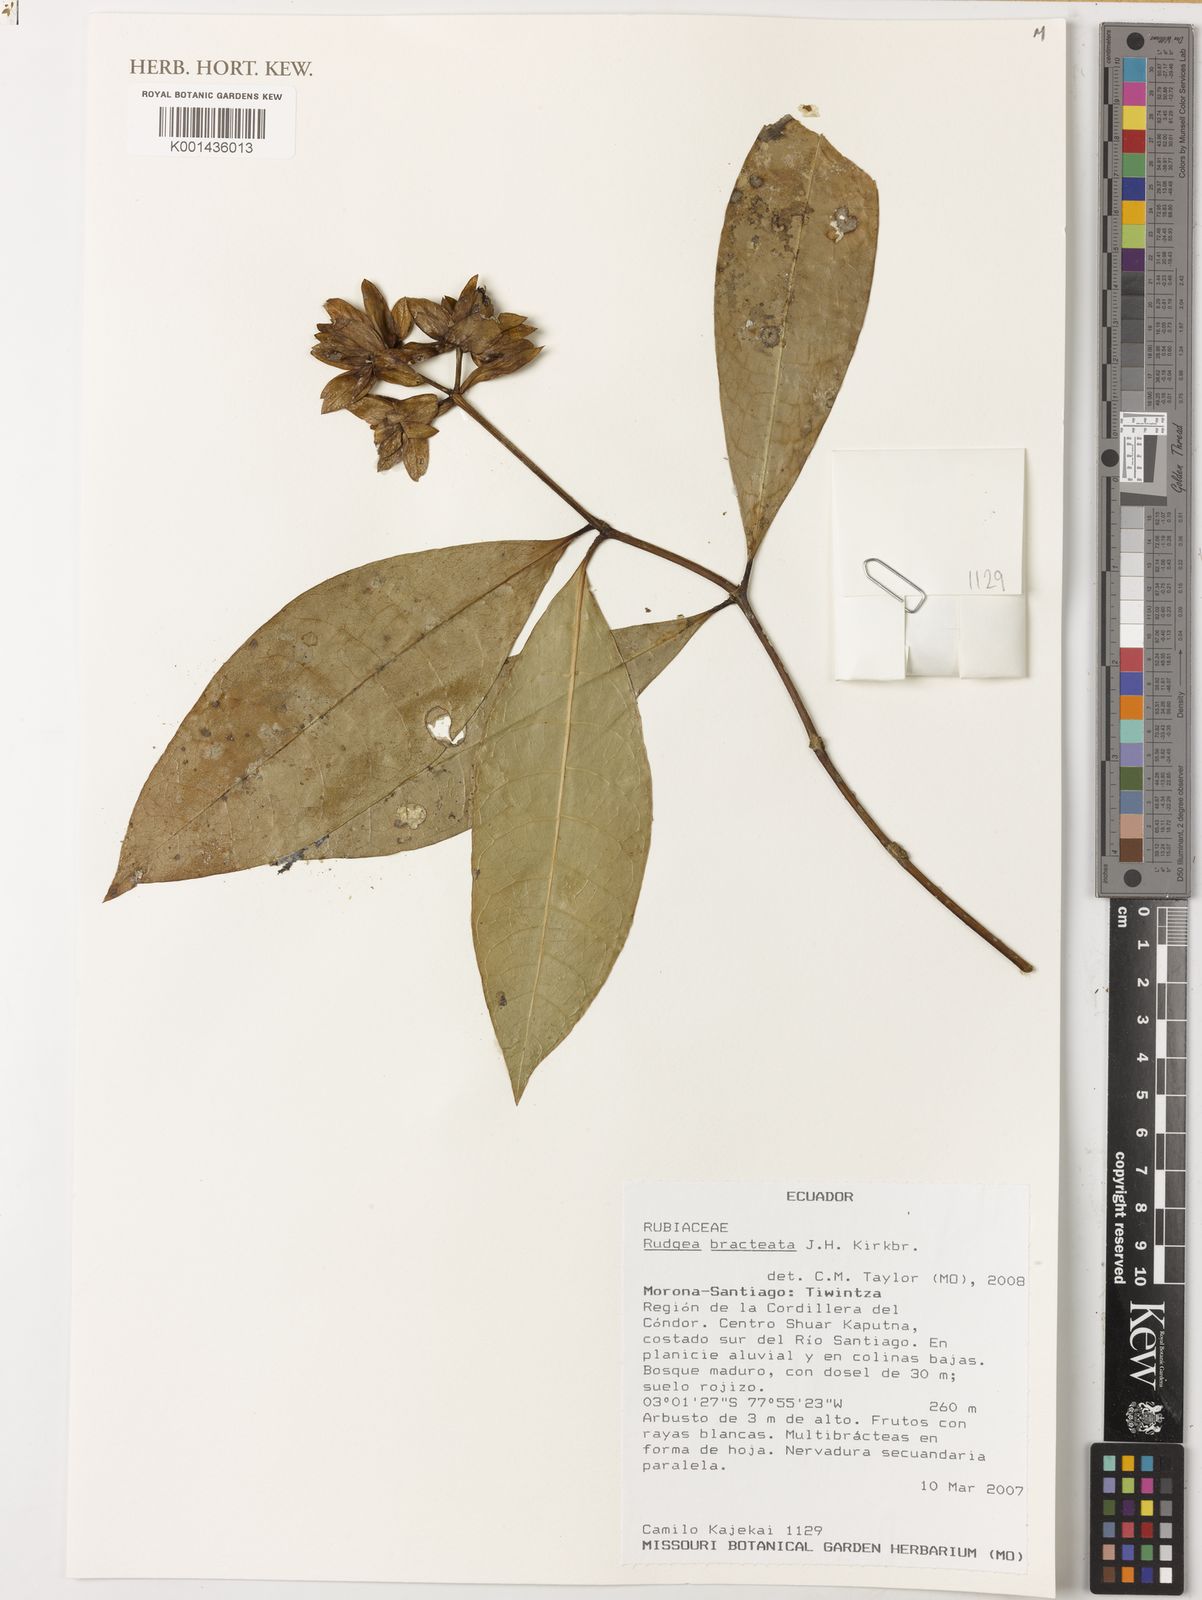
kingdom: Plantae
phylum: Tracheophyta
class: Magnoliopsida
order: Gentianales
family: Rubiaceae
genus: Rudgea
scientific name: Rudgea bracteata
